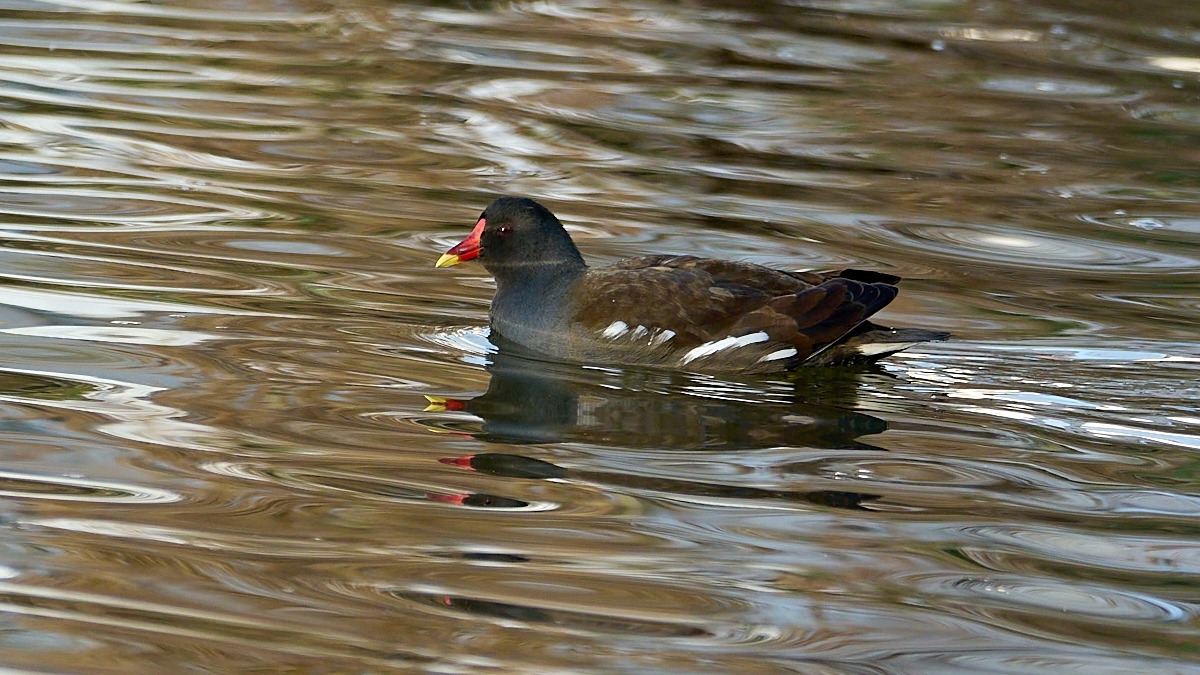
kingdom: Animalia
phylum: Chordata
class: Aves
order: Gruiformes
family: Rallidae
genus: Gallinula
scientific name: Gallinula chloropus
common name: Grønbenet rørhøne
